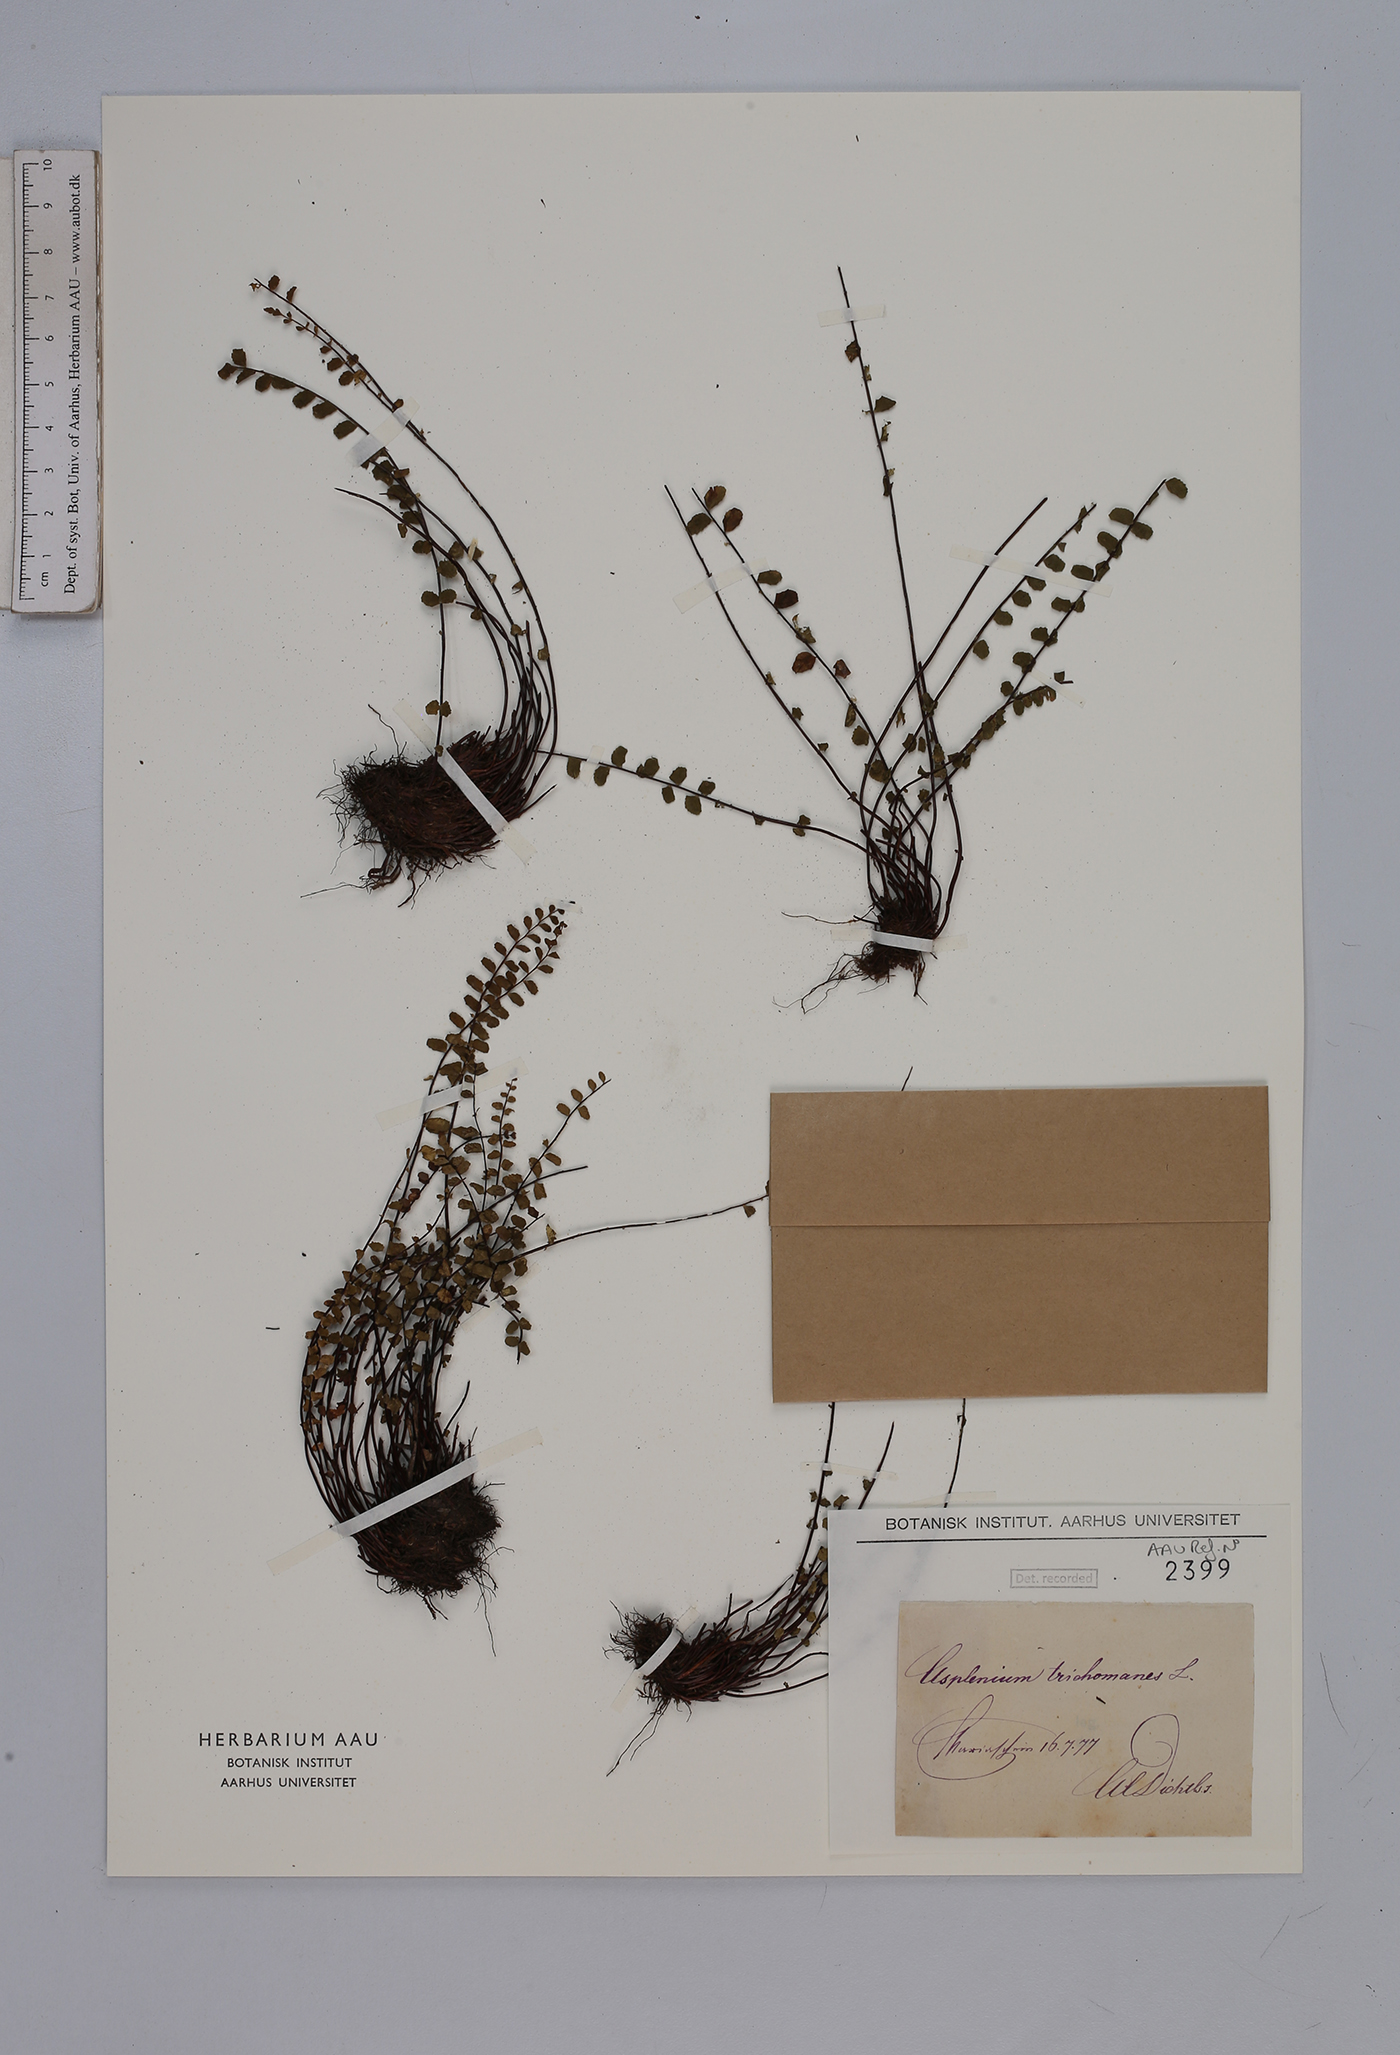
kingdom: Plantae
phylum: Tracheophyta
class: Polypodiopsida
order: Polypodiales
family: Aspleniaceae
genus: Asplenium
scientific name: Asplenium trichomanes
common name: Maidenhair spleenwort
